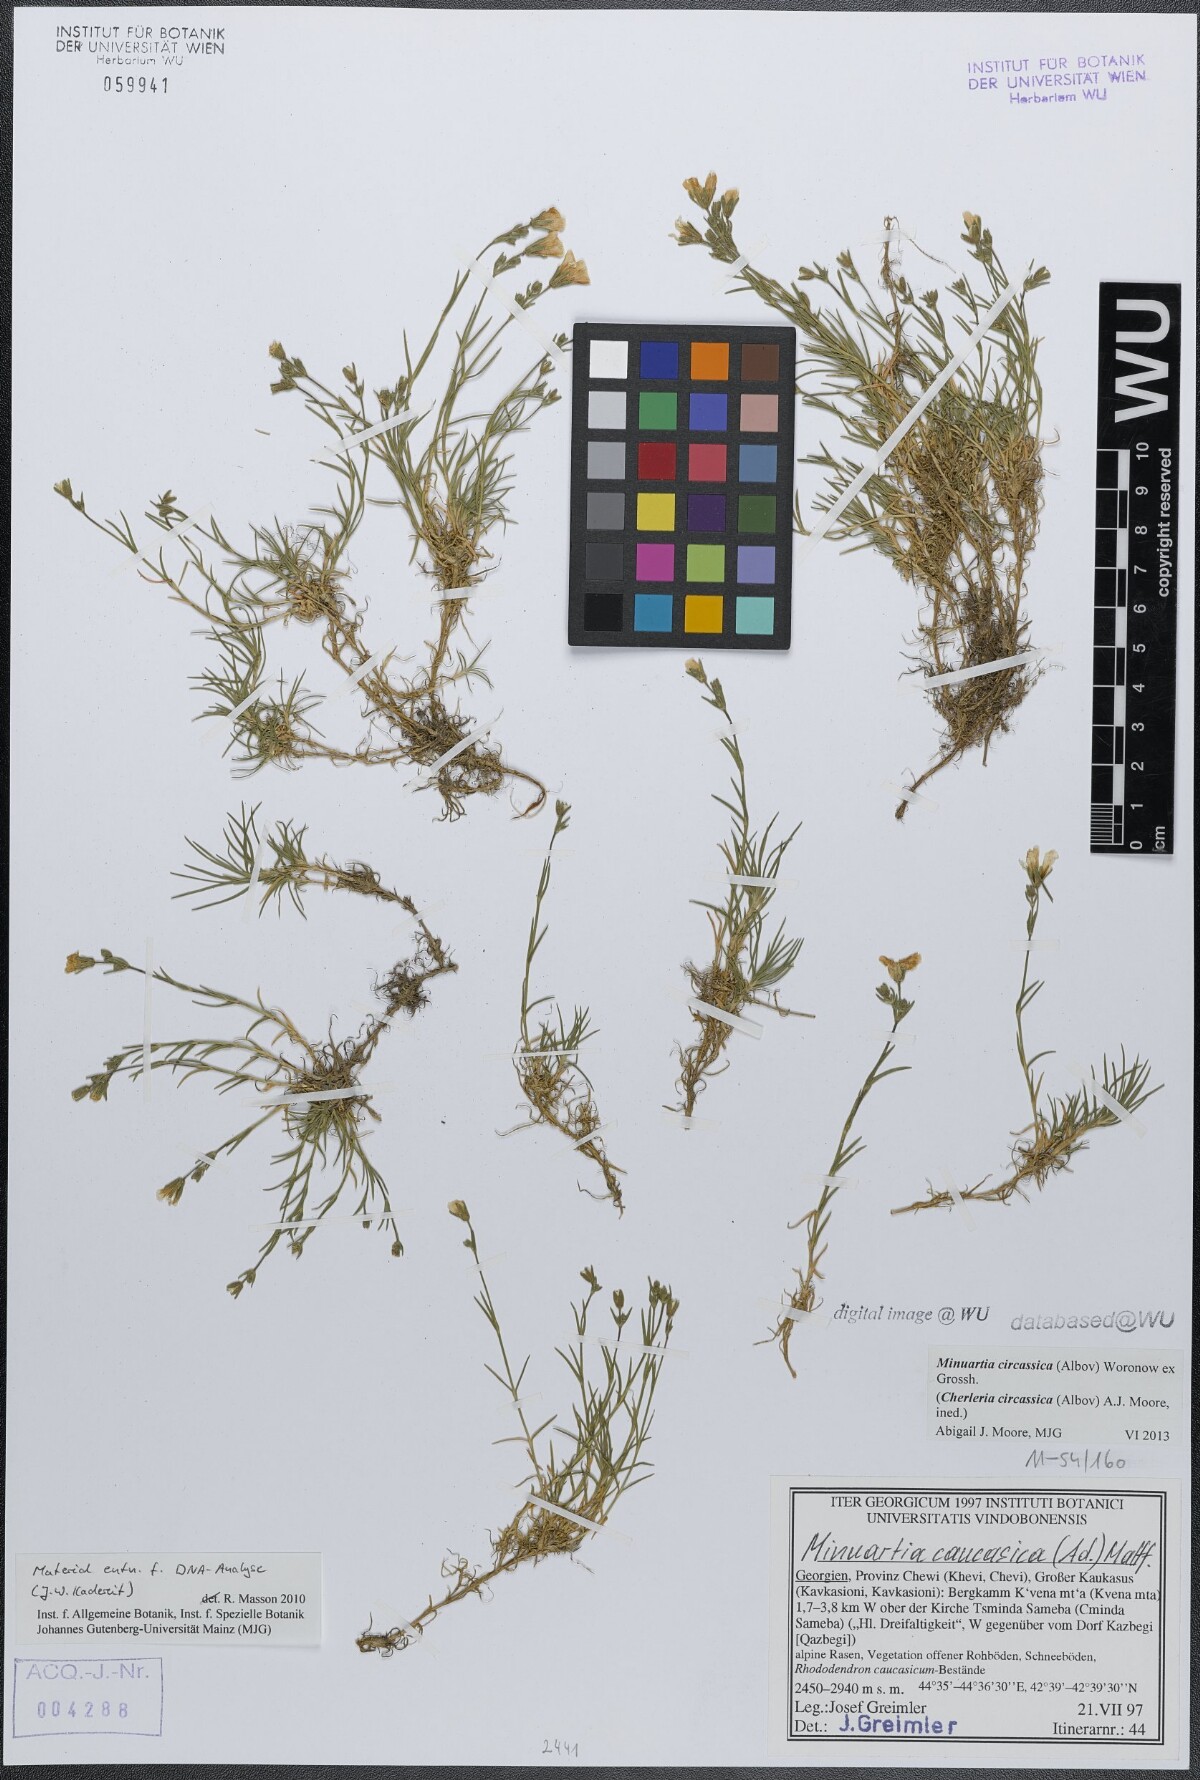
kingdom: Plantae
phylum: Tracheophyta
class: Magnoliopsida
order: Caryophyllales
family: Caryophyllaceae
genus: Cherleria
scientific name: Cherleria circassica
